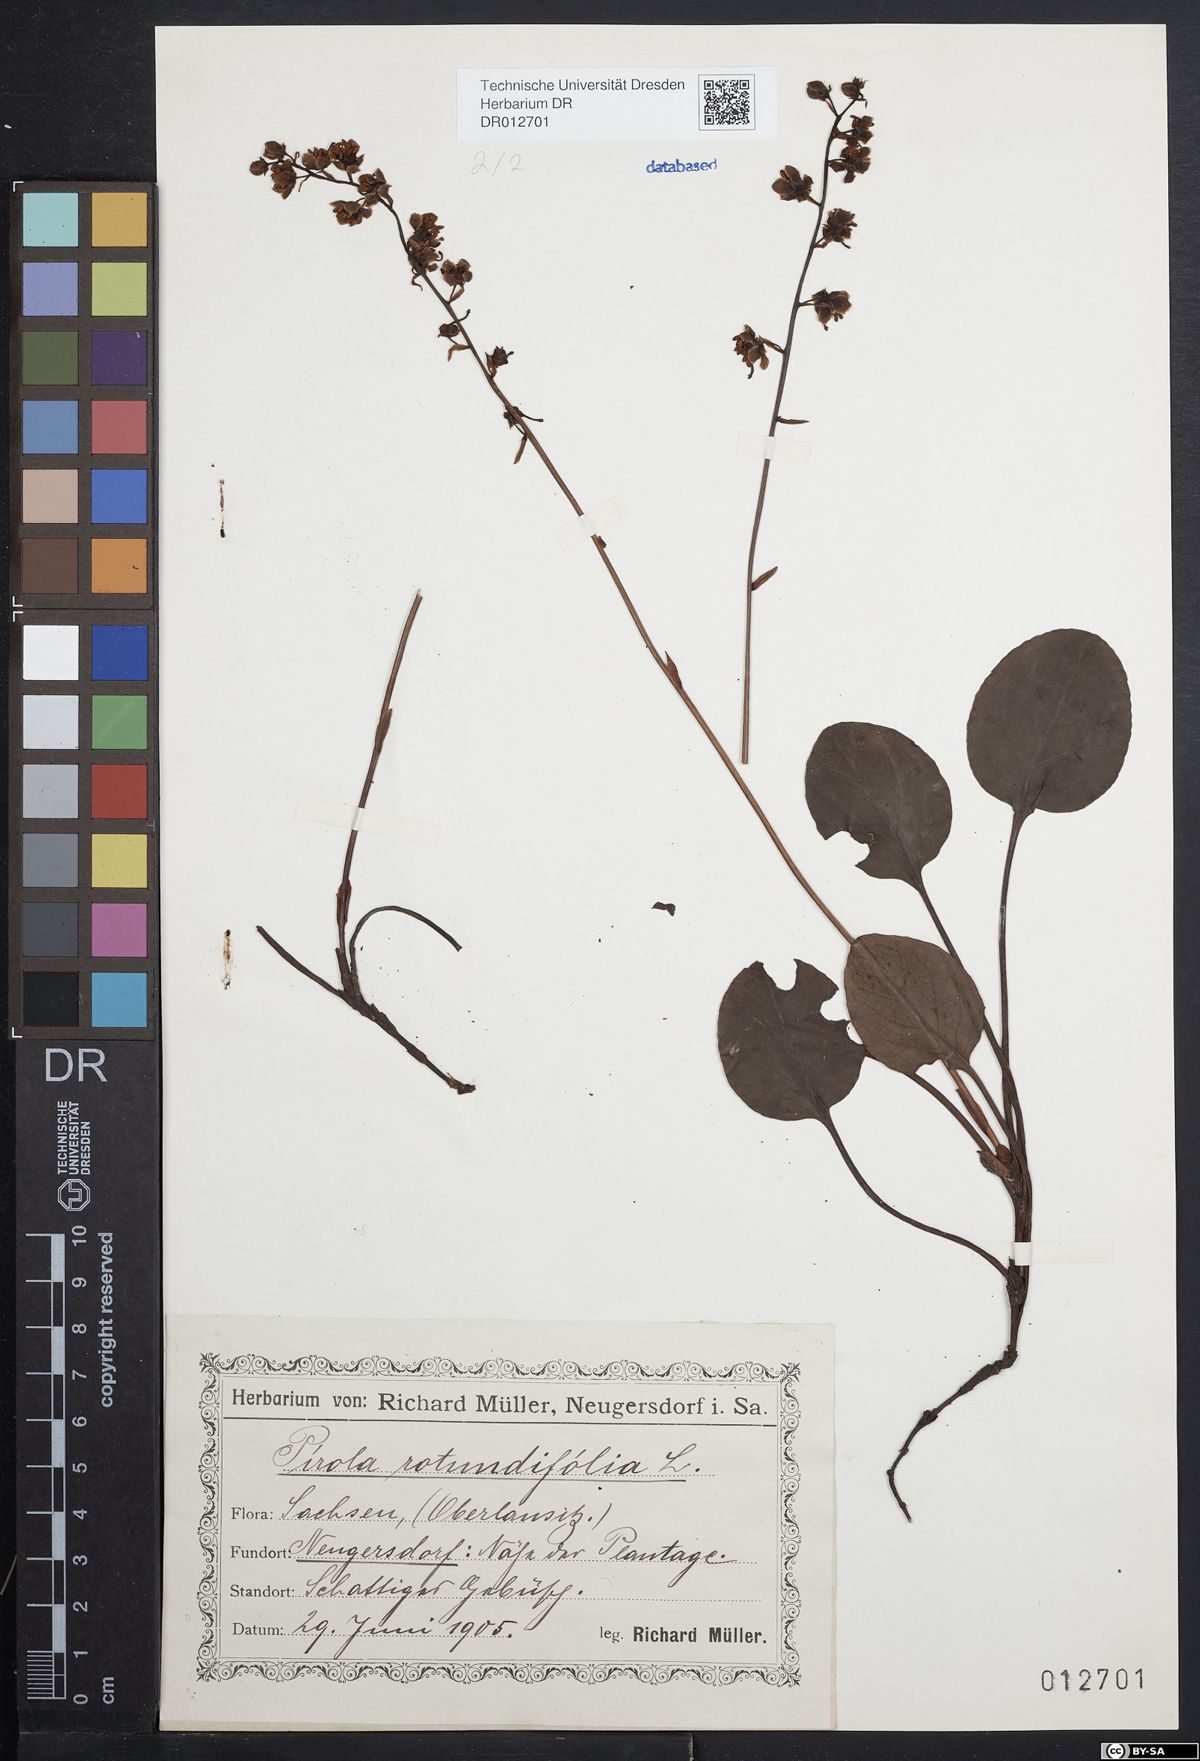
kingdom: Plantae
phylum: Tracheophyta
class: Magnoliopsida
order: Ericales
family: Ericaceae
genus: Pyrola
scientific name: Pyrola rotundifolia
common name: Round-leaved wintergreen
